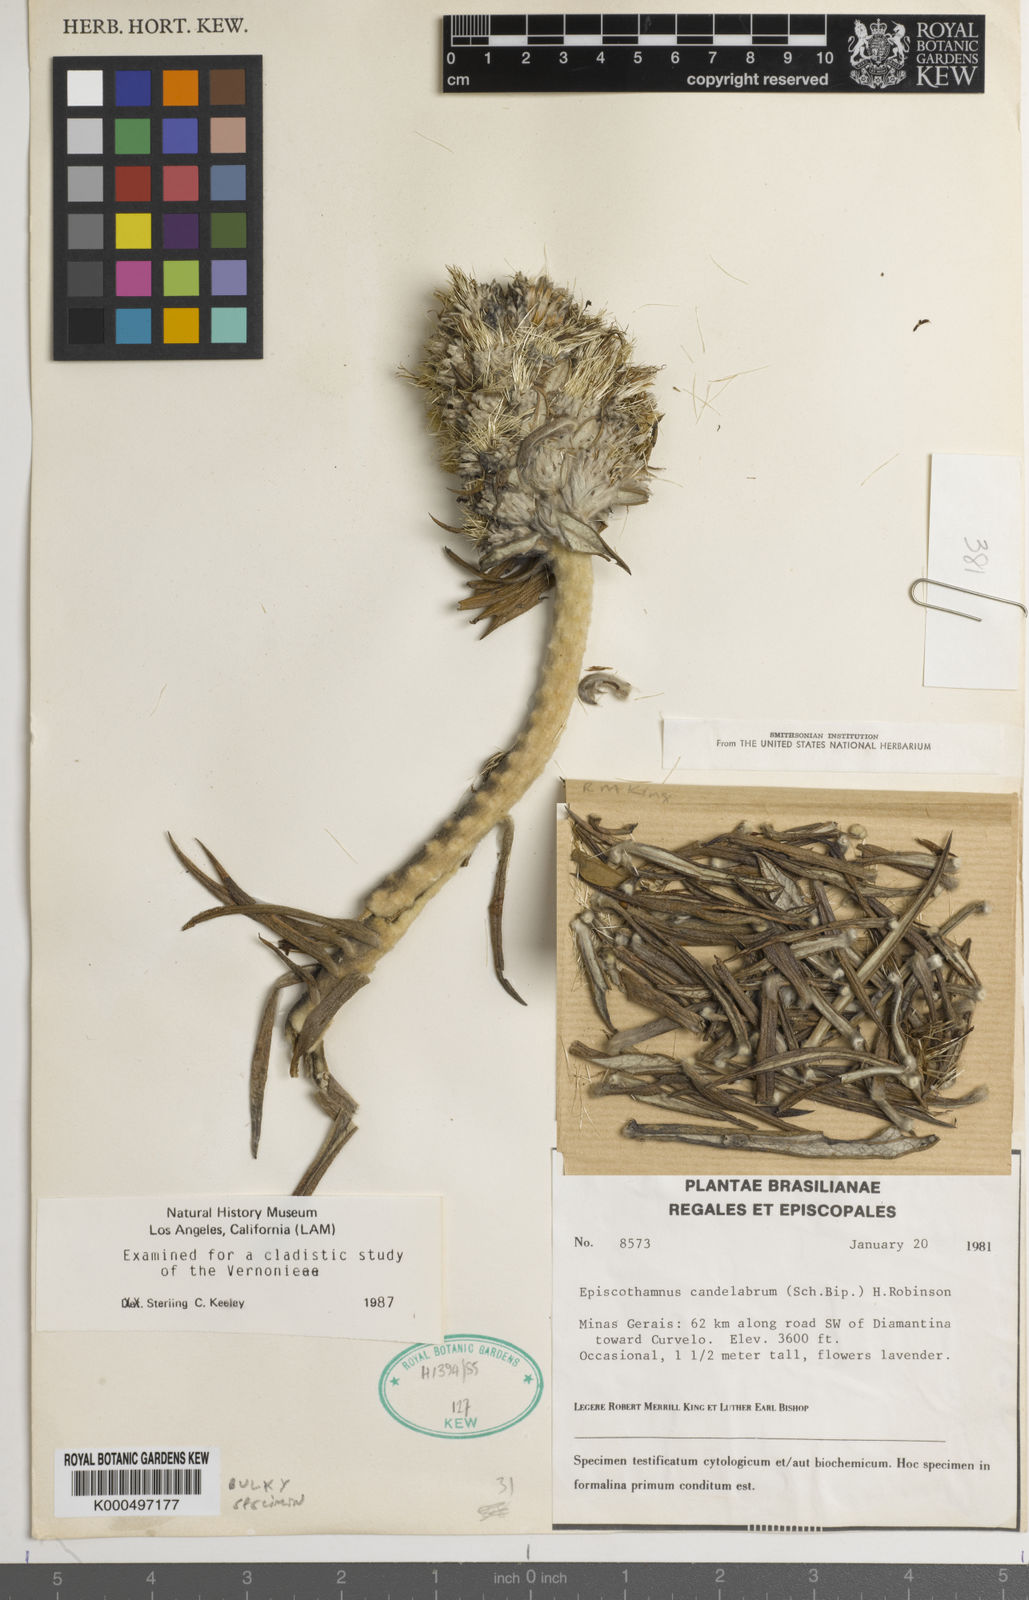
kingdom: Plantae
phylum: Tracheophyta
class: Magnoliopsida
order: Asterales
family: Asteraceae
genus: Lychnophora
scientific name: Lychnophora candelabrum
